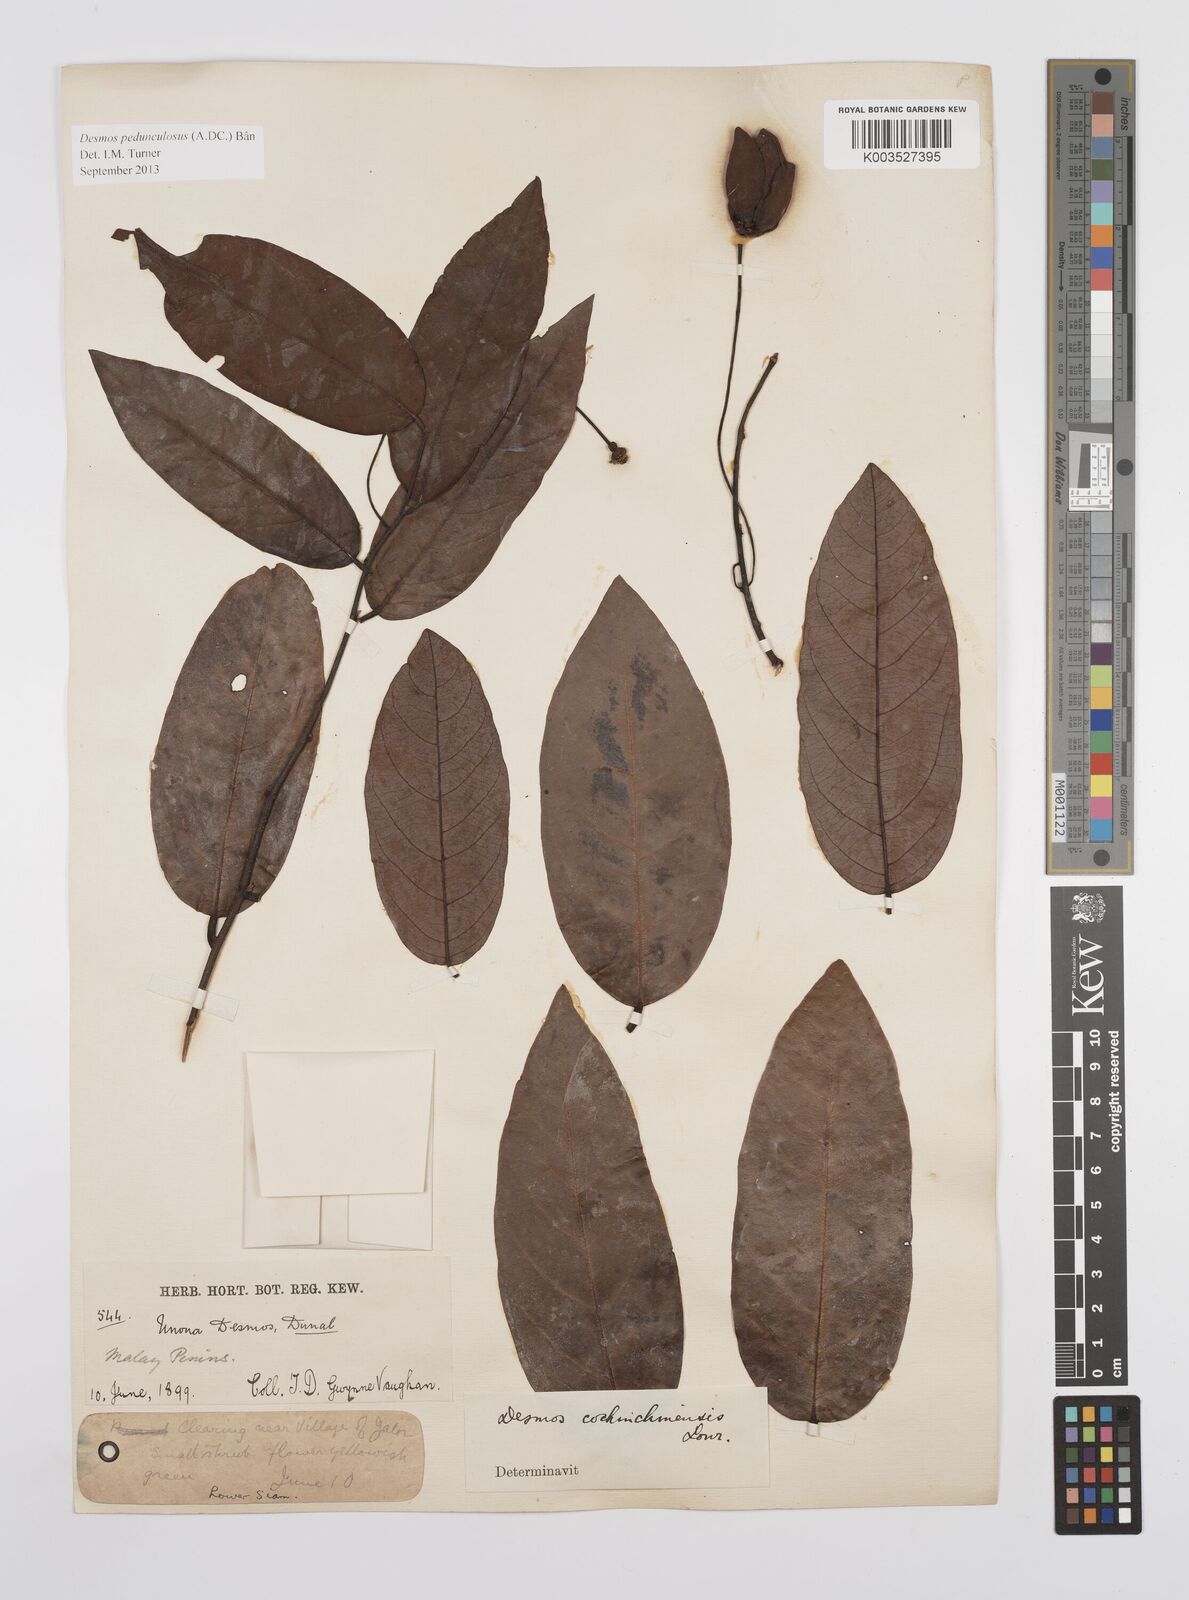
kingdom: Plantae
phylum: Tracheophyta
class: Magnoliopsida
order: Magnoliales
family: Annonaceae
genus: Desmos
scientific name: Desmos cochinchinensis
